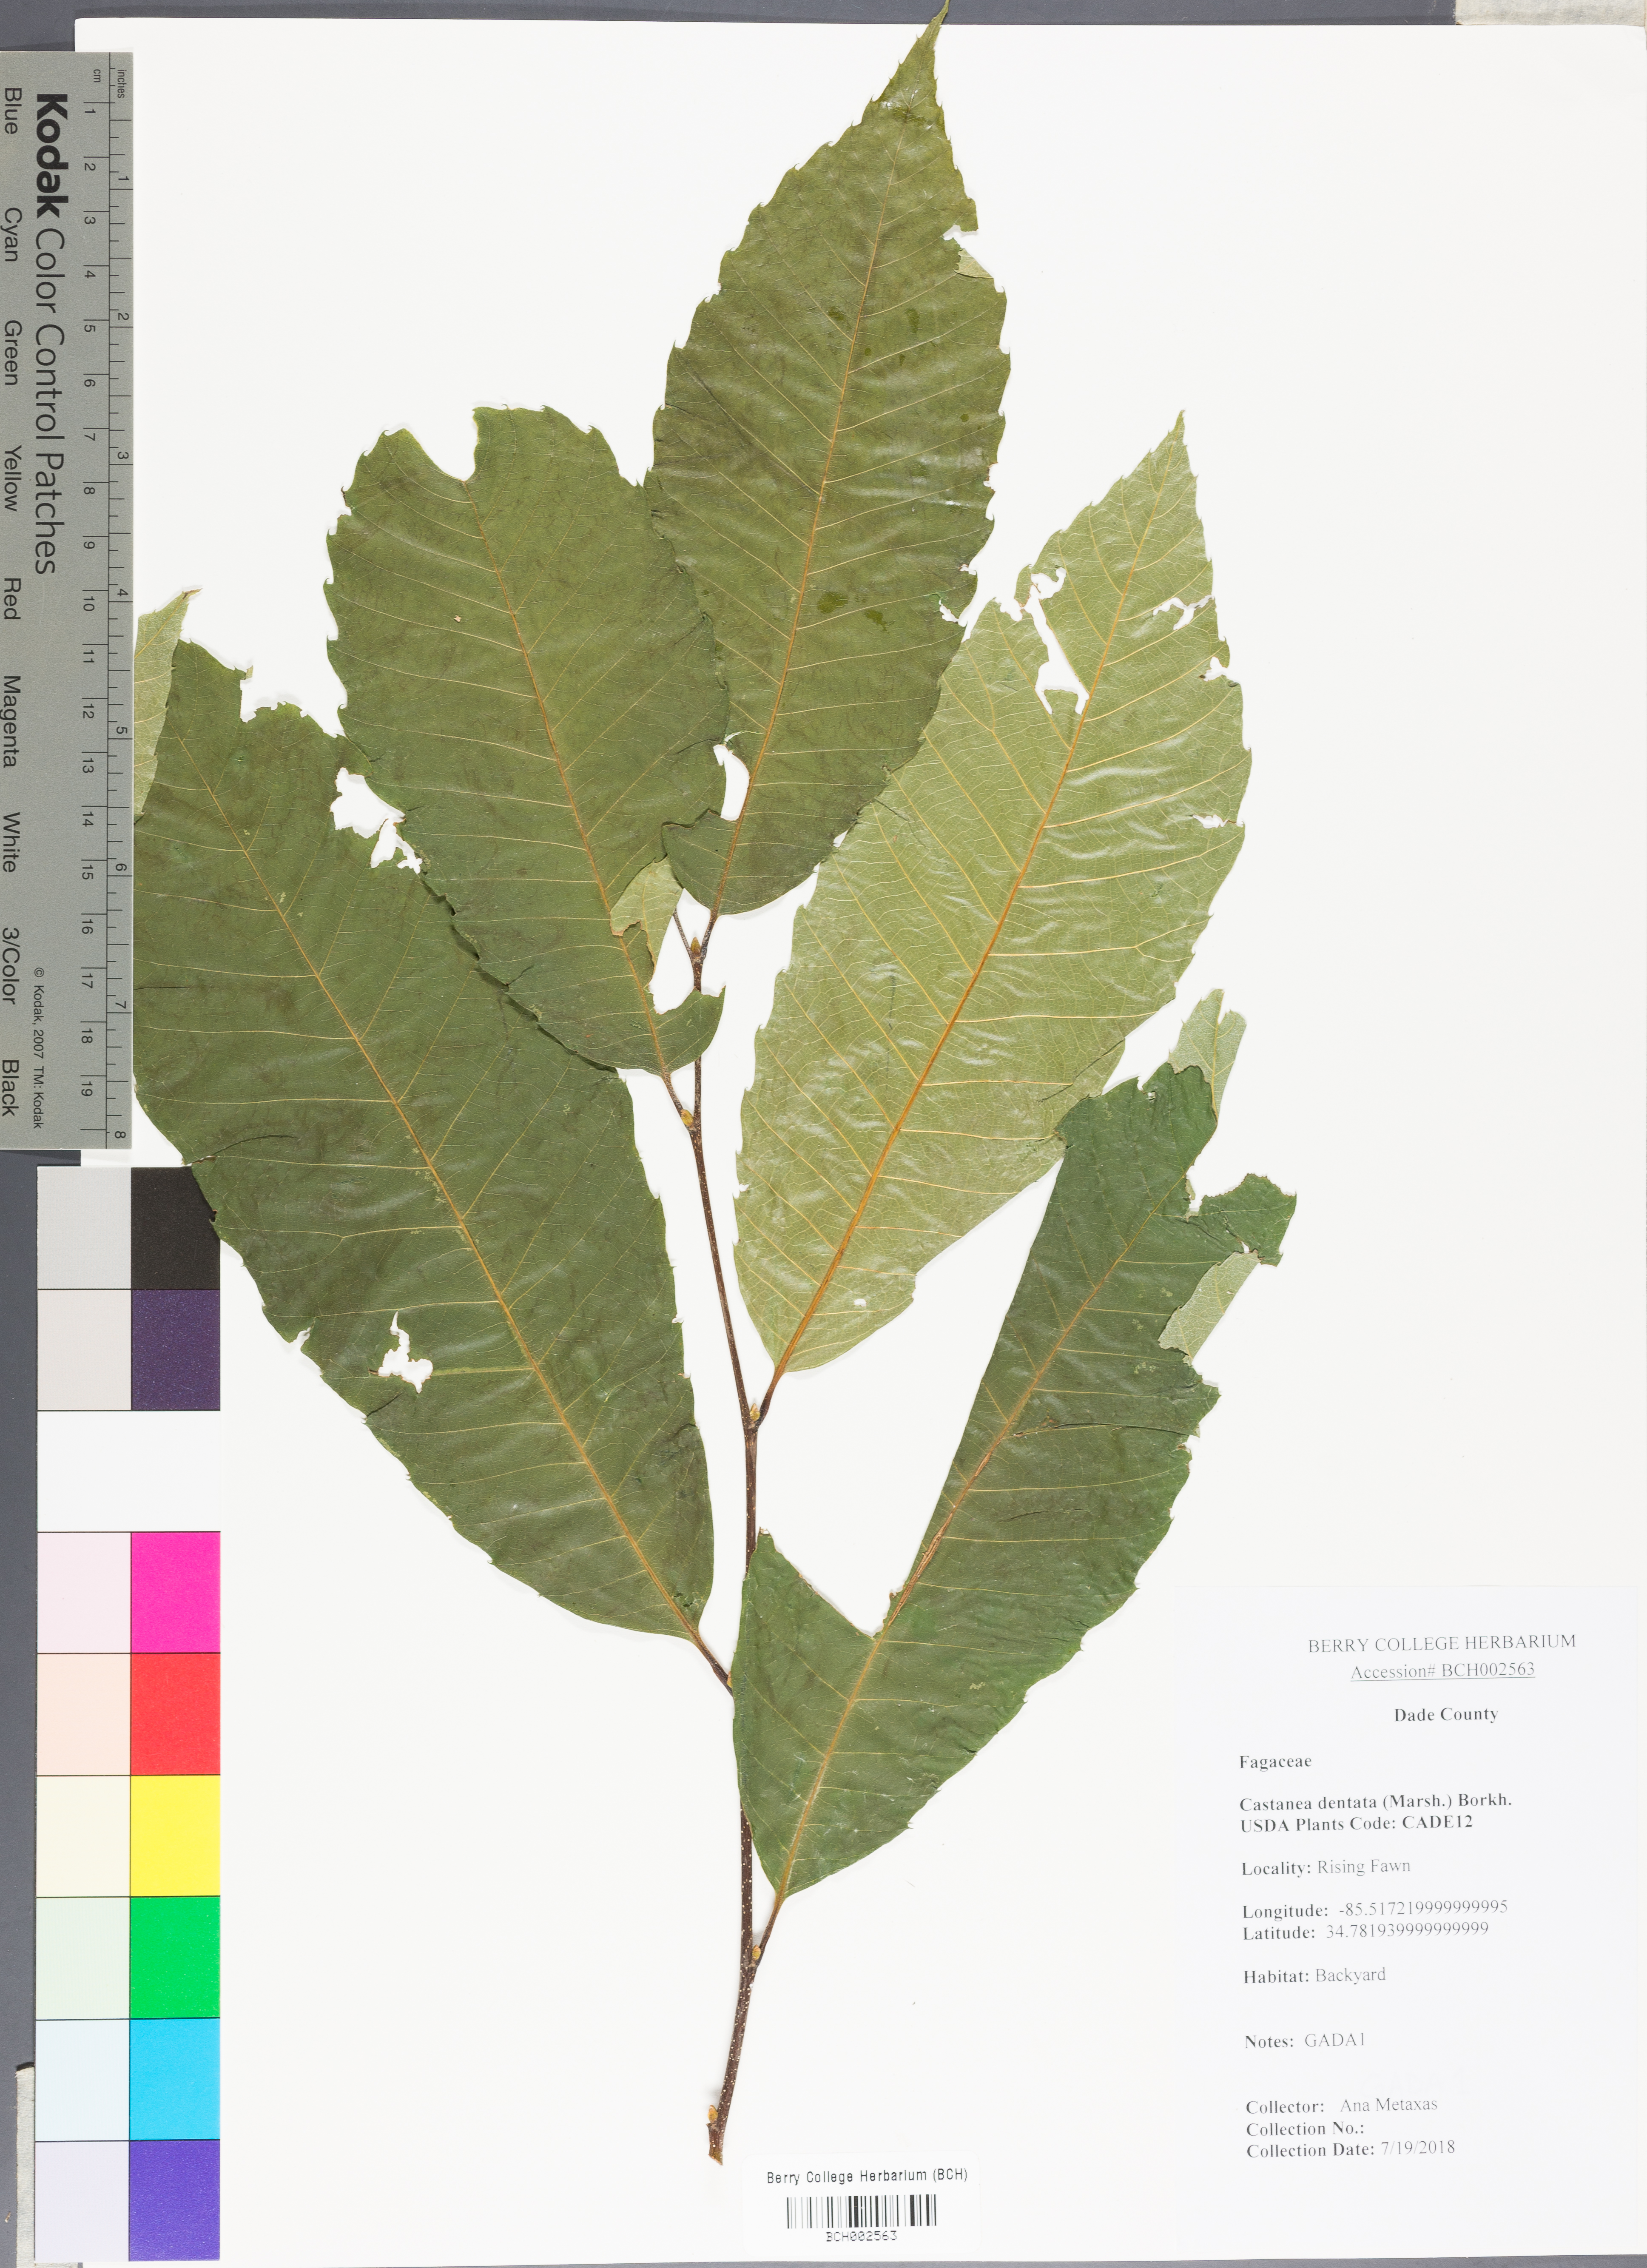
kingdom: Plantae
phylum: Tracheophyta
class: Magnoliopsida
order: Fagales
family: Fagaceae
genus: Castanea
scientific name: Castanea dentata
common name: American chestnut
